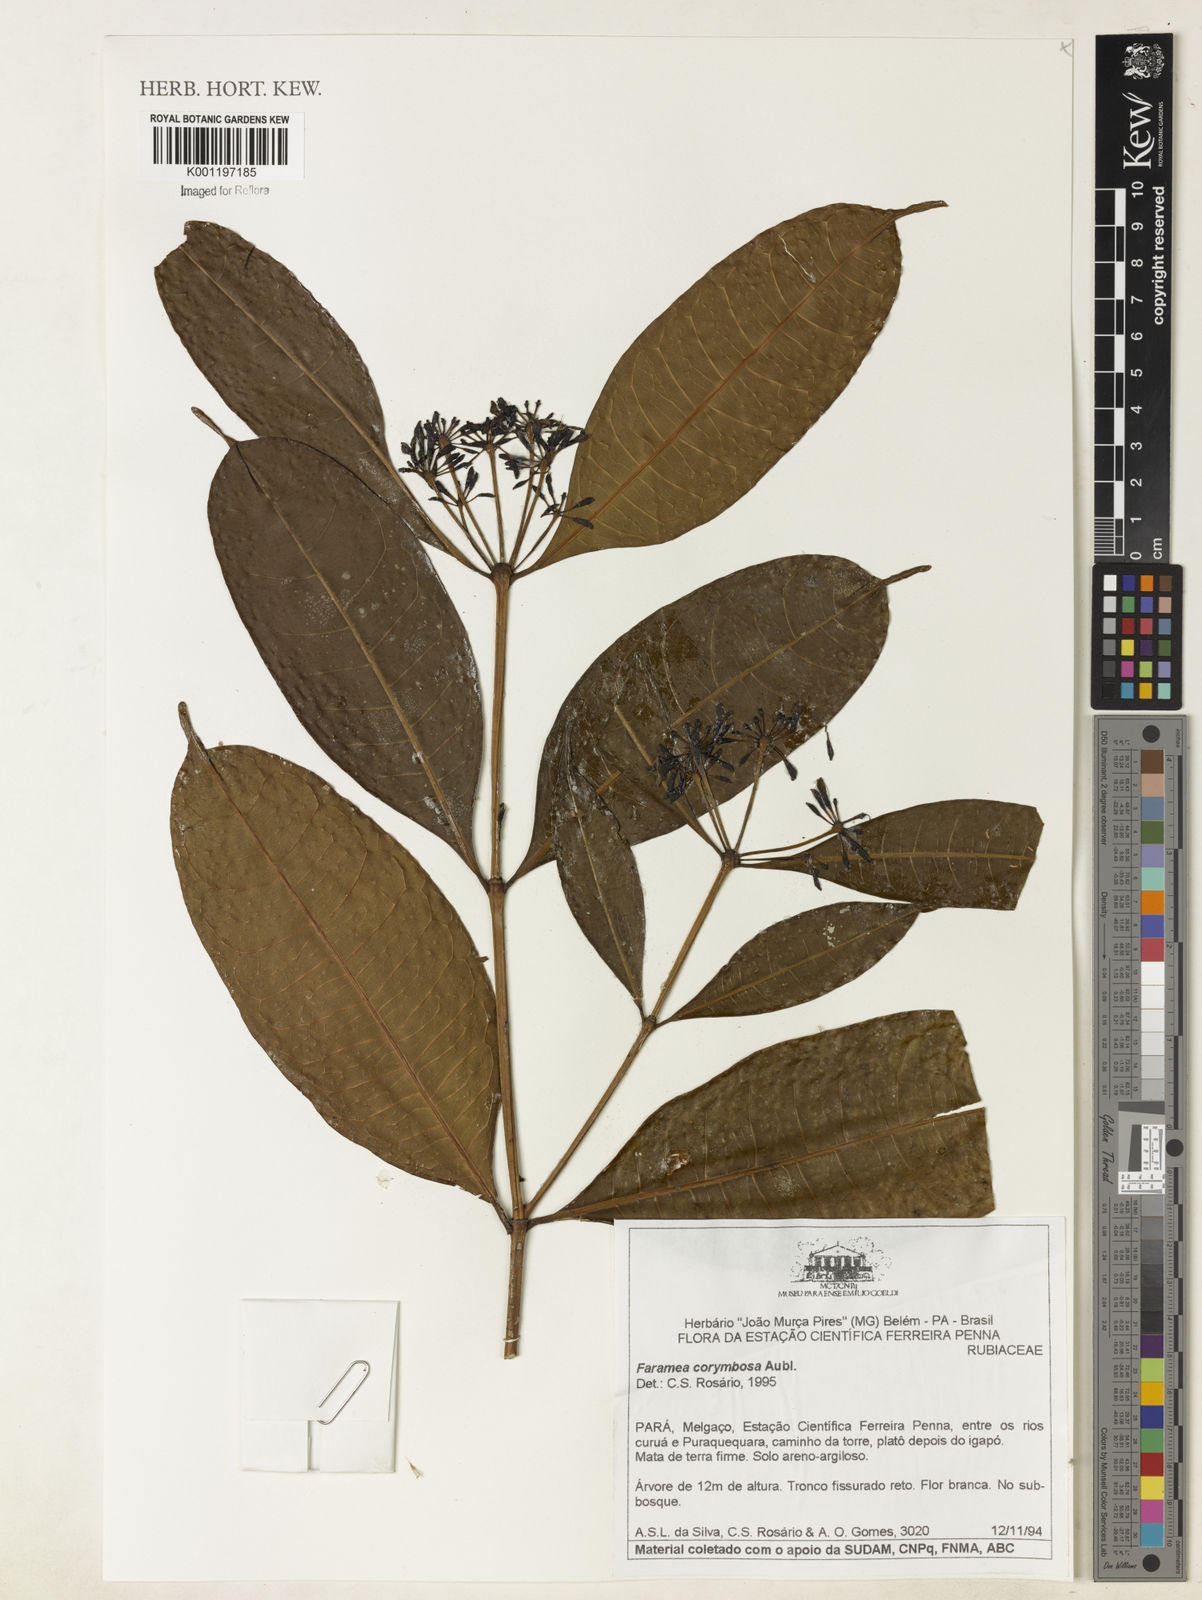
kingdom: Plantae
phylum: Tracheophyta
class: Magnoliopsida
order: Gentianales
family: Rubiaceae
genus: Faramea
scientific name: Faramea corymbosa
